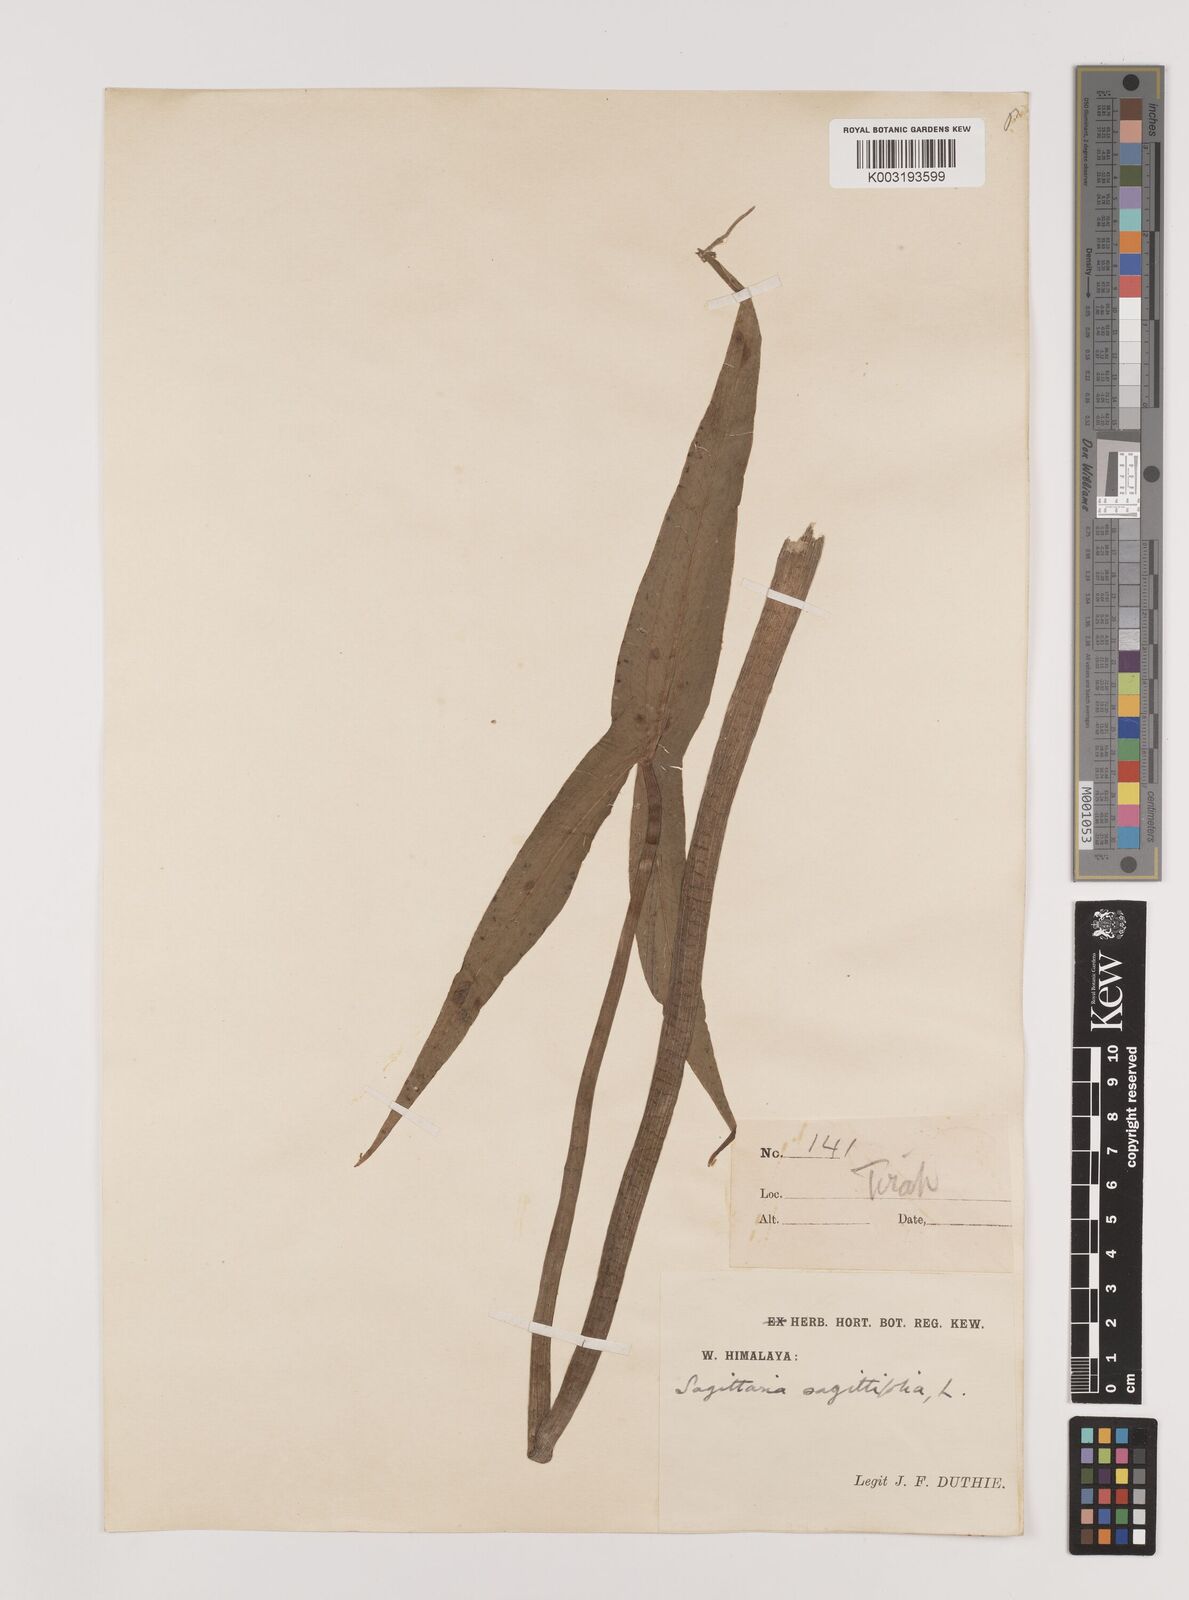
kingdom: Plantae
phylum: Tracheophyta
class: Liliopsida
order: Alismatales
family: Alismataceae
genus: Sagittaria
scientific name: Sagittaria sagittifolia
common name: Arrowhead
